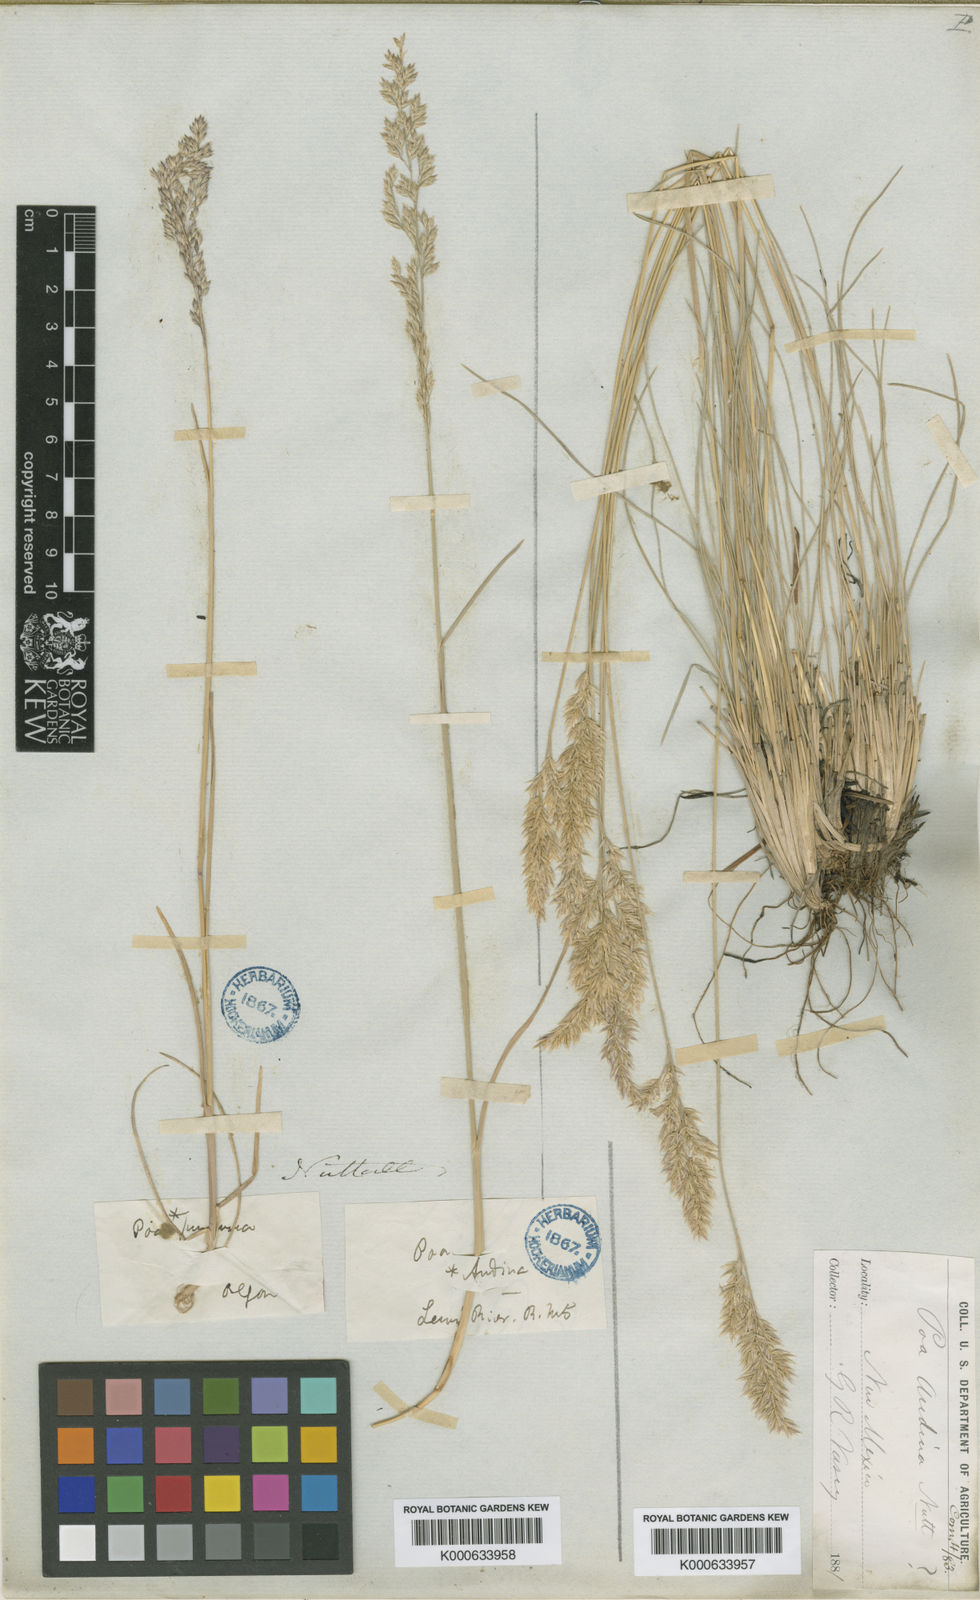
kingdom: Plantae
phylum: Tracheophyta
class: Liliopsida
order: Poales
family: Poaceae
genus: Poa
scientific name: Poa arida
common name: Plains bluegrass
